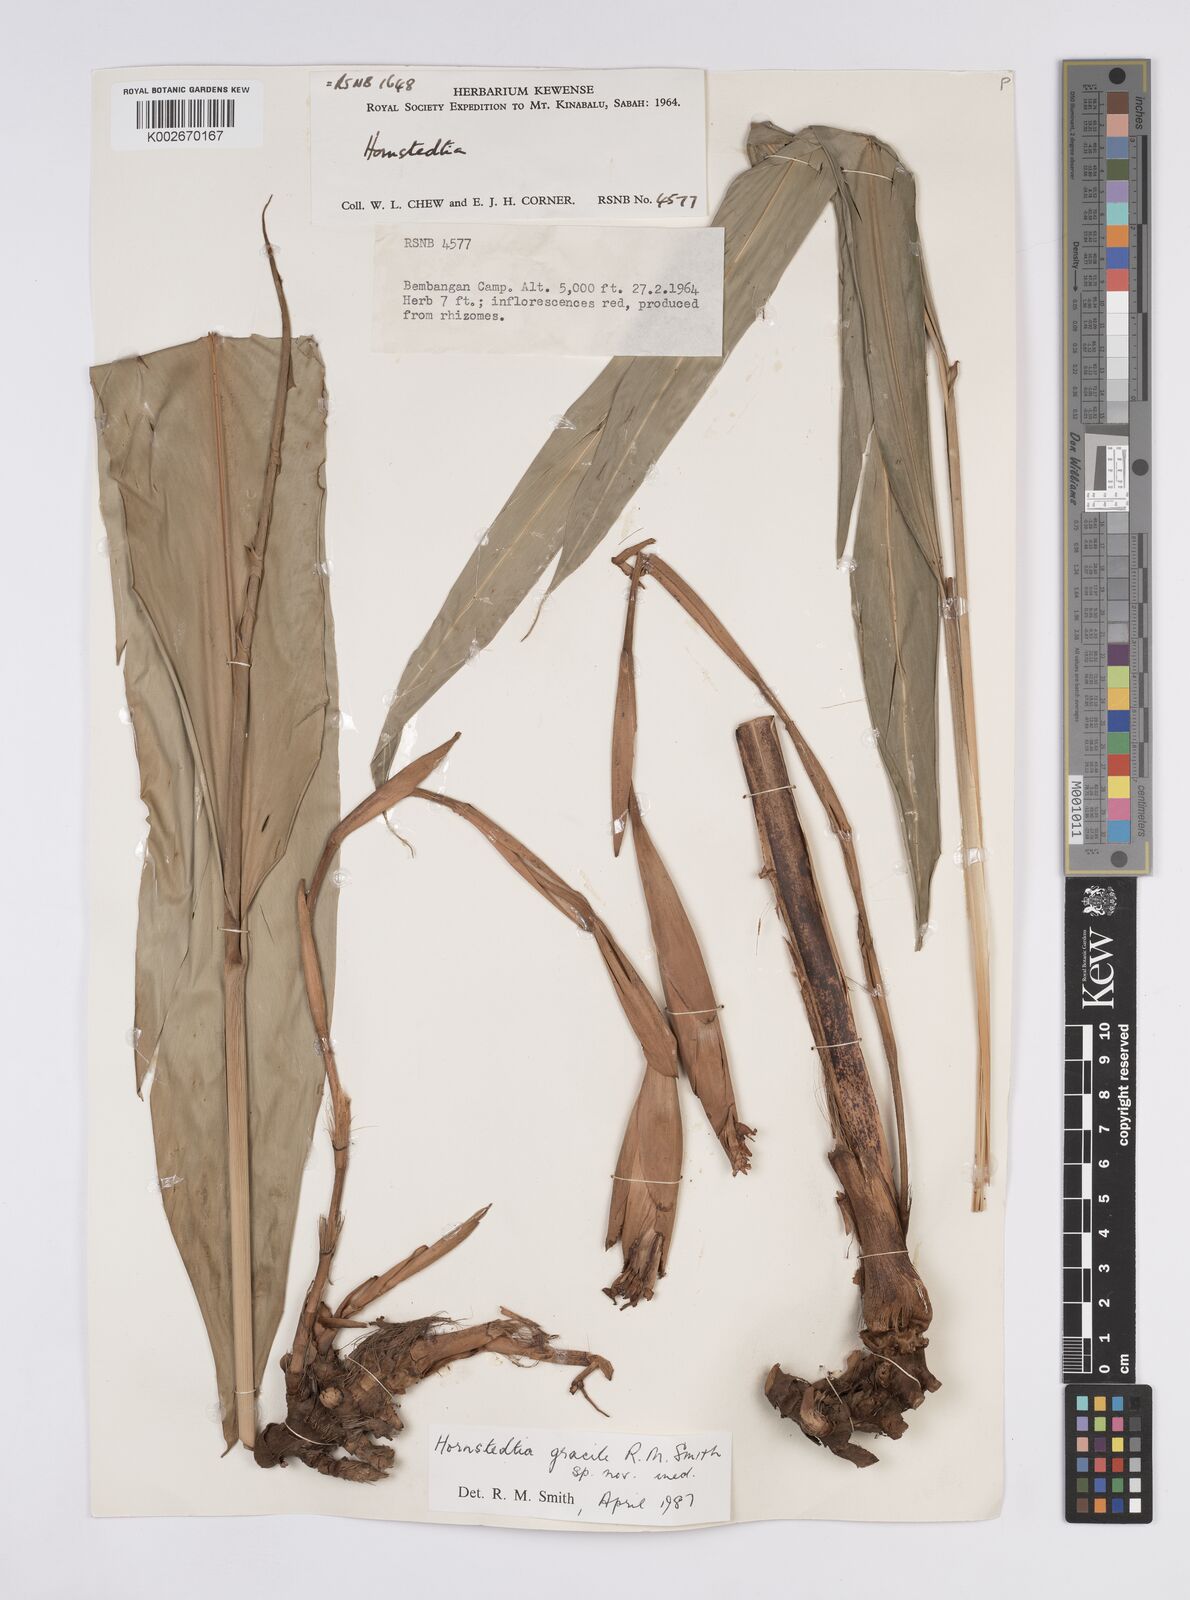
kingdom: Plantae
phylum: Tracheophyta
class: Liliopsida
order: Zingiberales
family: Zingiberaceae
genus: Hornstedtia
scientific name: Hornstedtia gracilis
